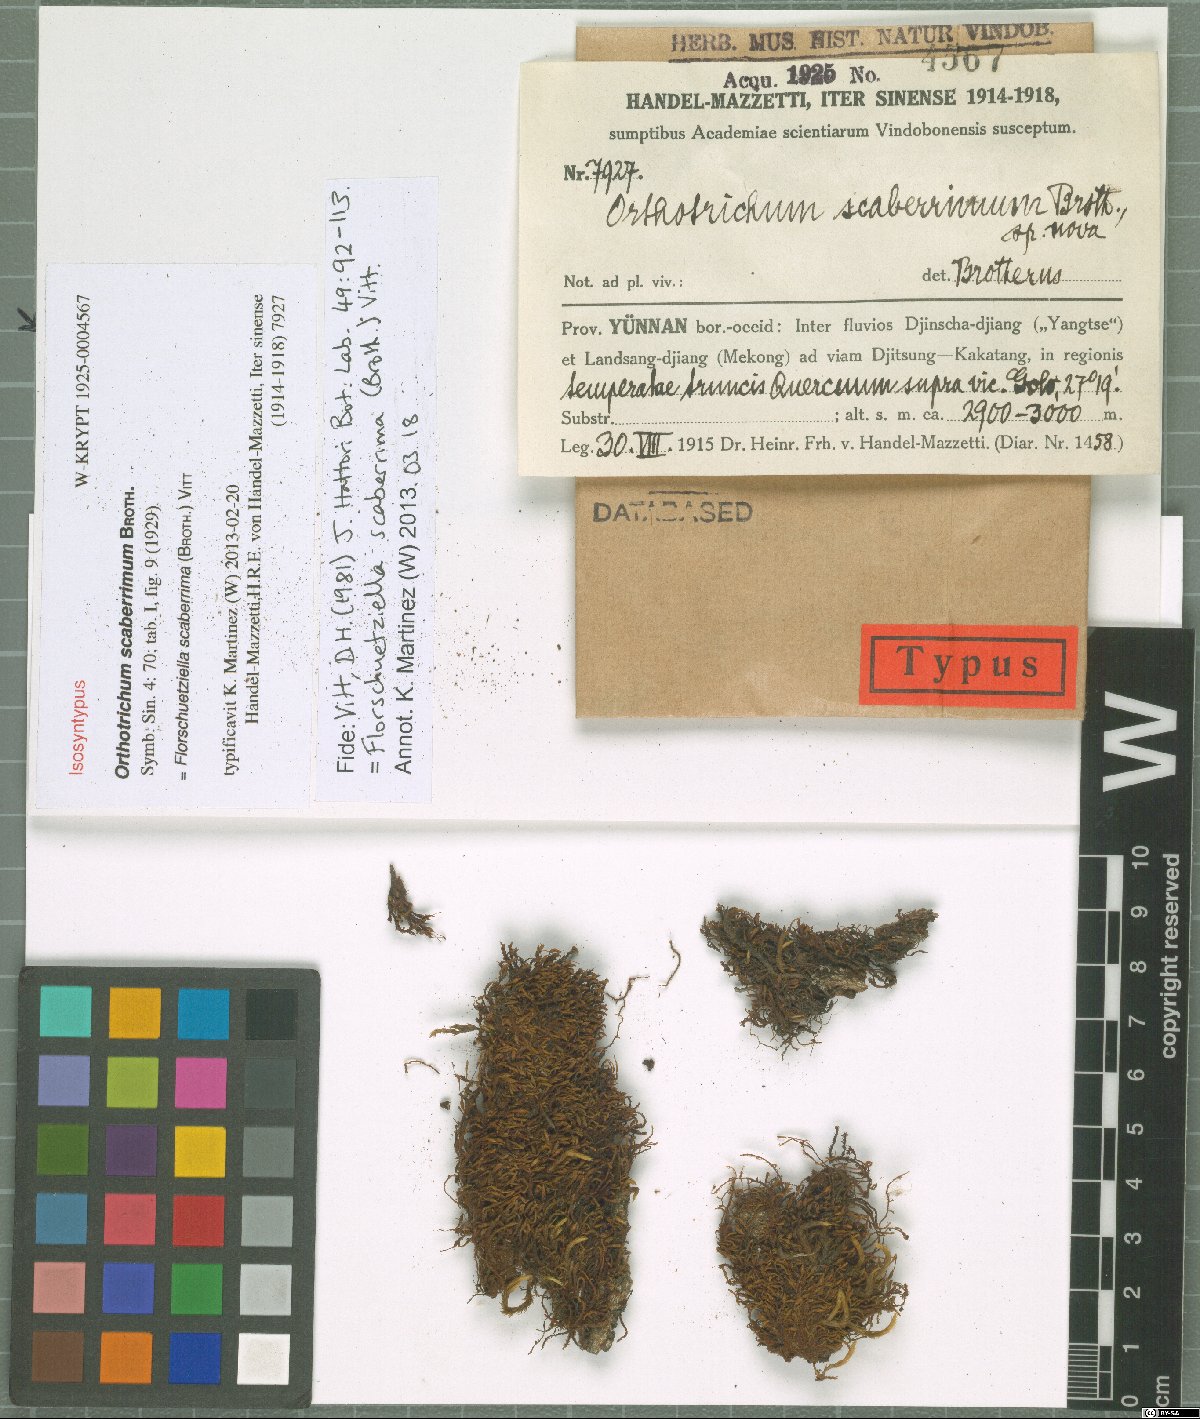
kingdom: Plantae
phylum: Bryophyta
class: Bryopsida
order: Orthotrichales
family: Orthotrichaceae
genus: Florschuetziella
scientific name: Florschuetziella scaberrima
